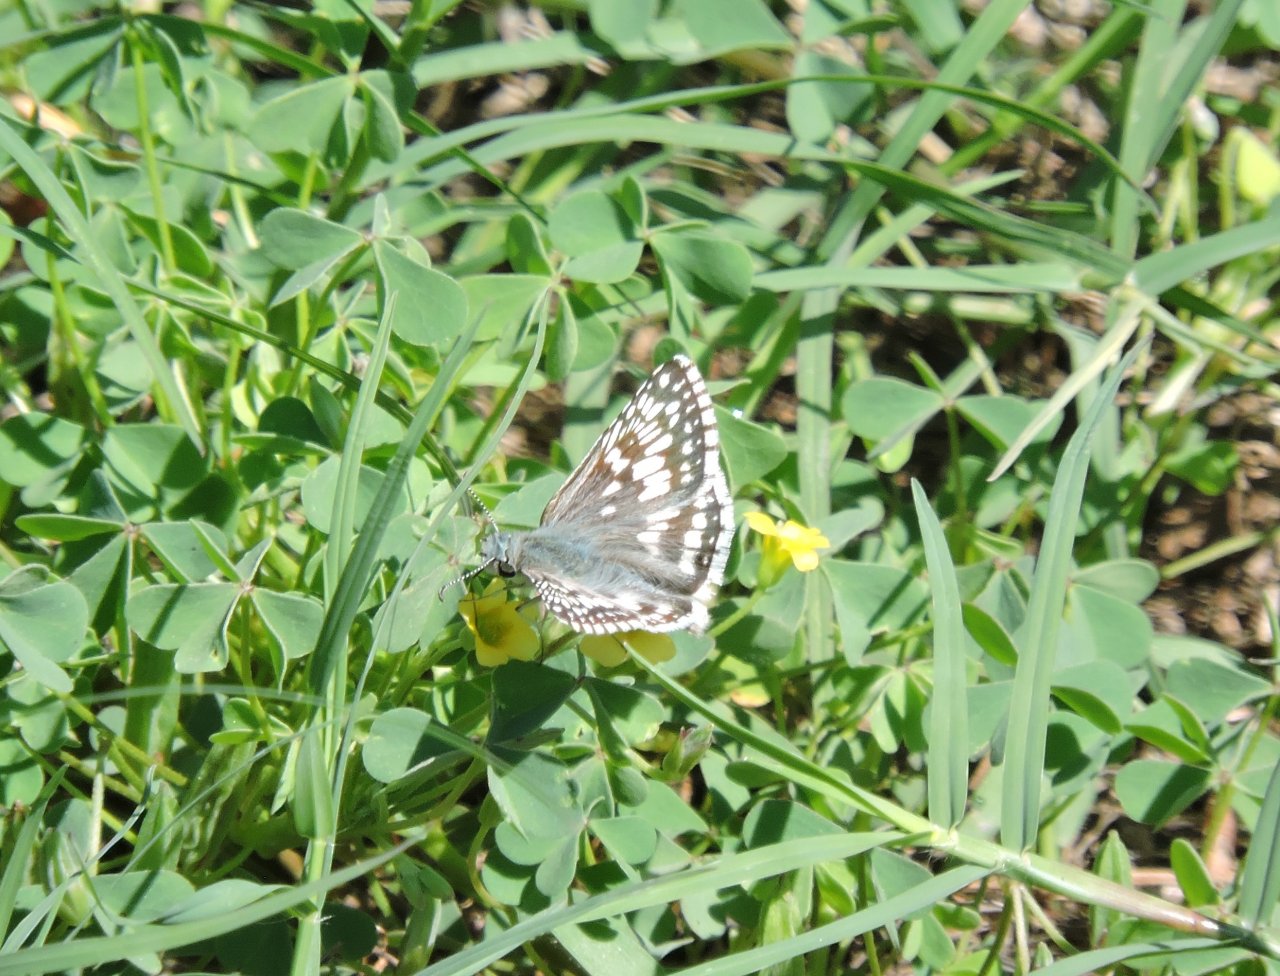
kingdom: Animalia
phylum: Arthropoda
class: Insecta
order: Lepidoptera
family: Hesperiidae
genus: Pyrgus
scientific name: Pyrgus communis
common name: White Checkered-Skipper
